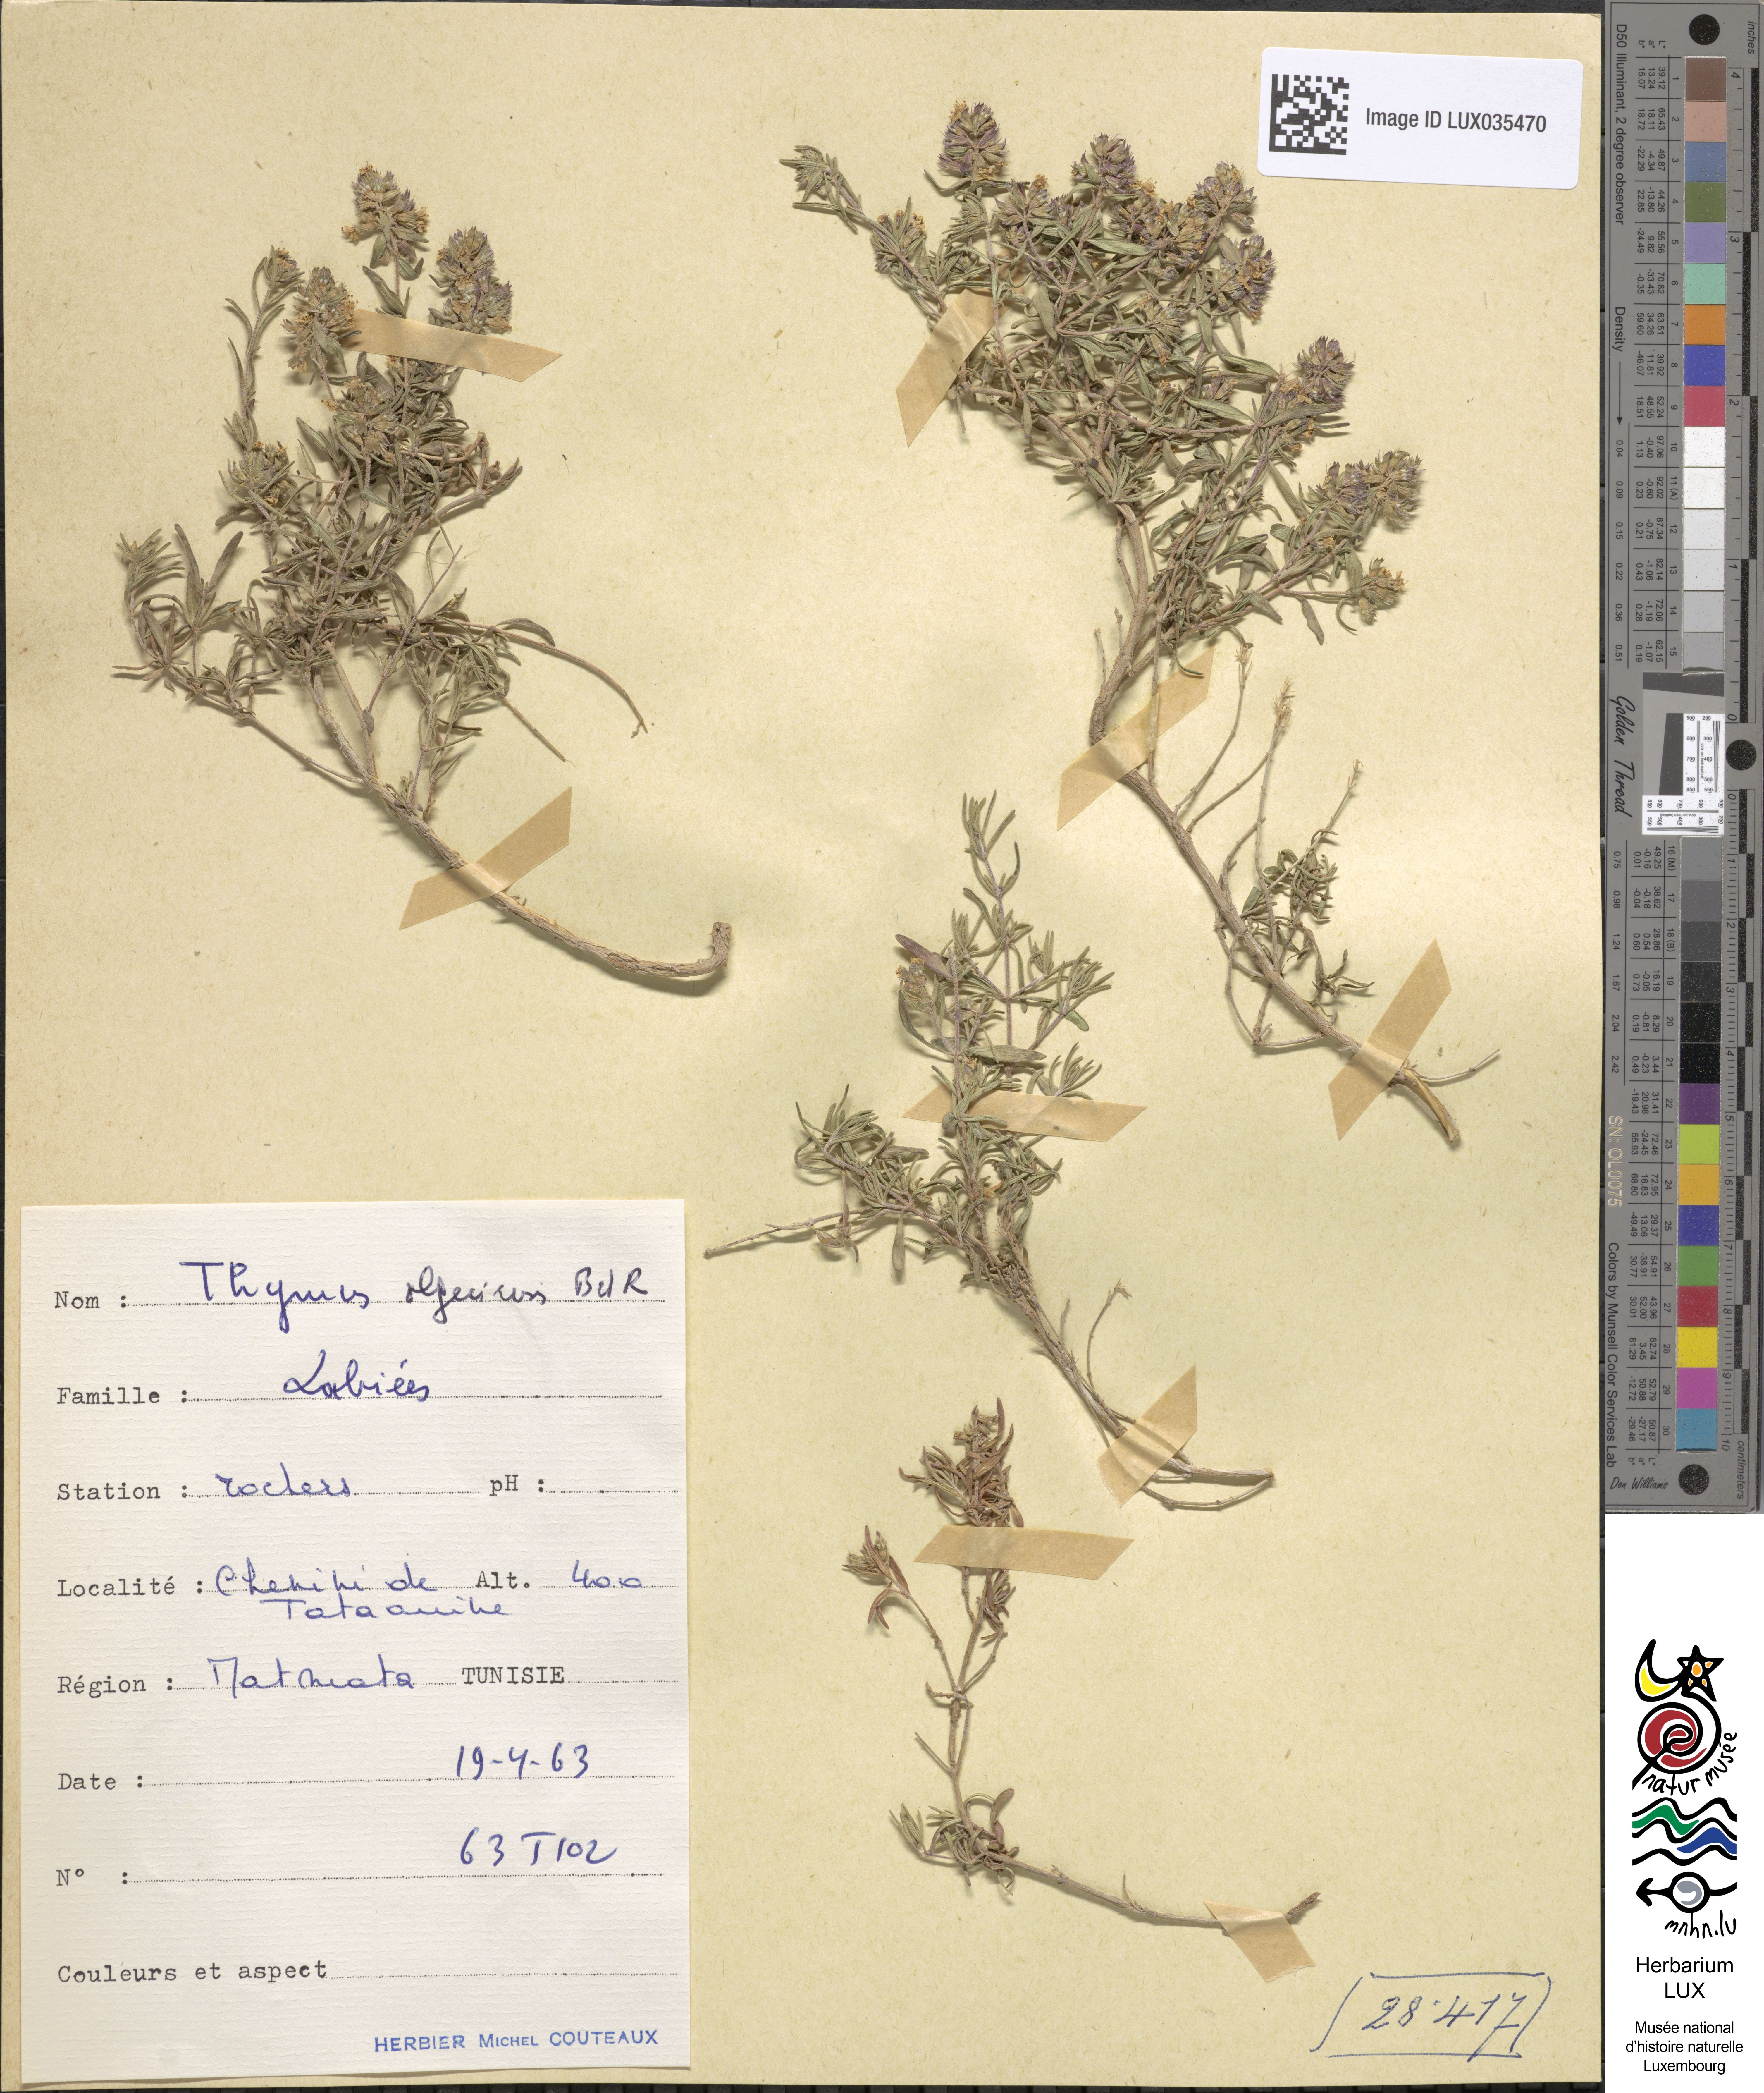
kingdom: Plantae
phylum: Tracheophyta
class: Magnoliopsida
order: Lamiales
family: Lamiaceae
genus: Thymus
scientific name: Thymus algeriensis
